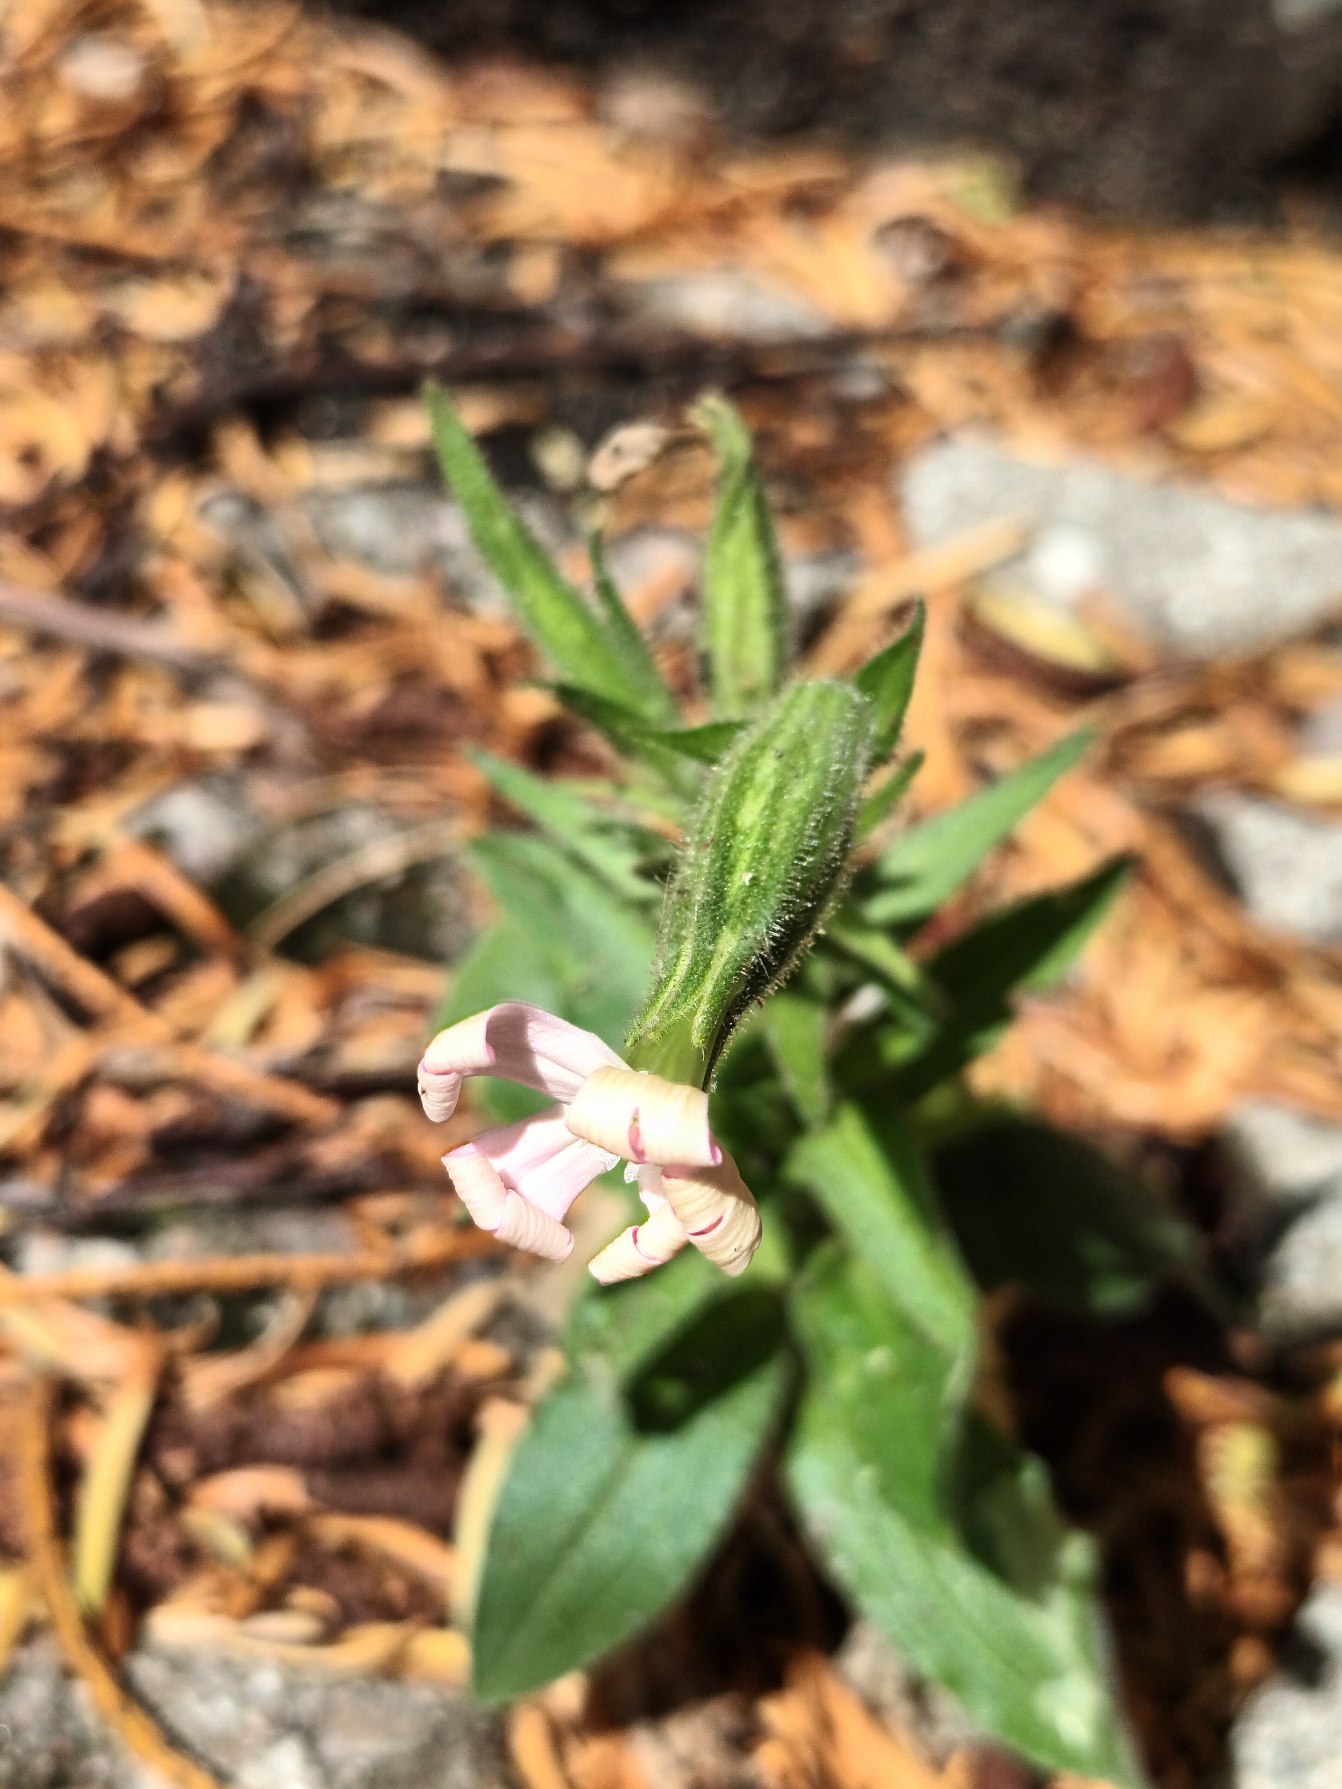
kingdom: Plantae
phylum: Tracheophyta
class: Magnoliopsida
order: Caryophyllales
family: Caryophyllaceae
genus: Silene
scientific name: Silene noctiflora
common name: Nat-limurt
